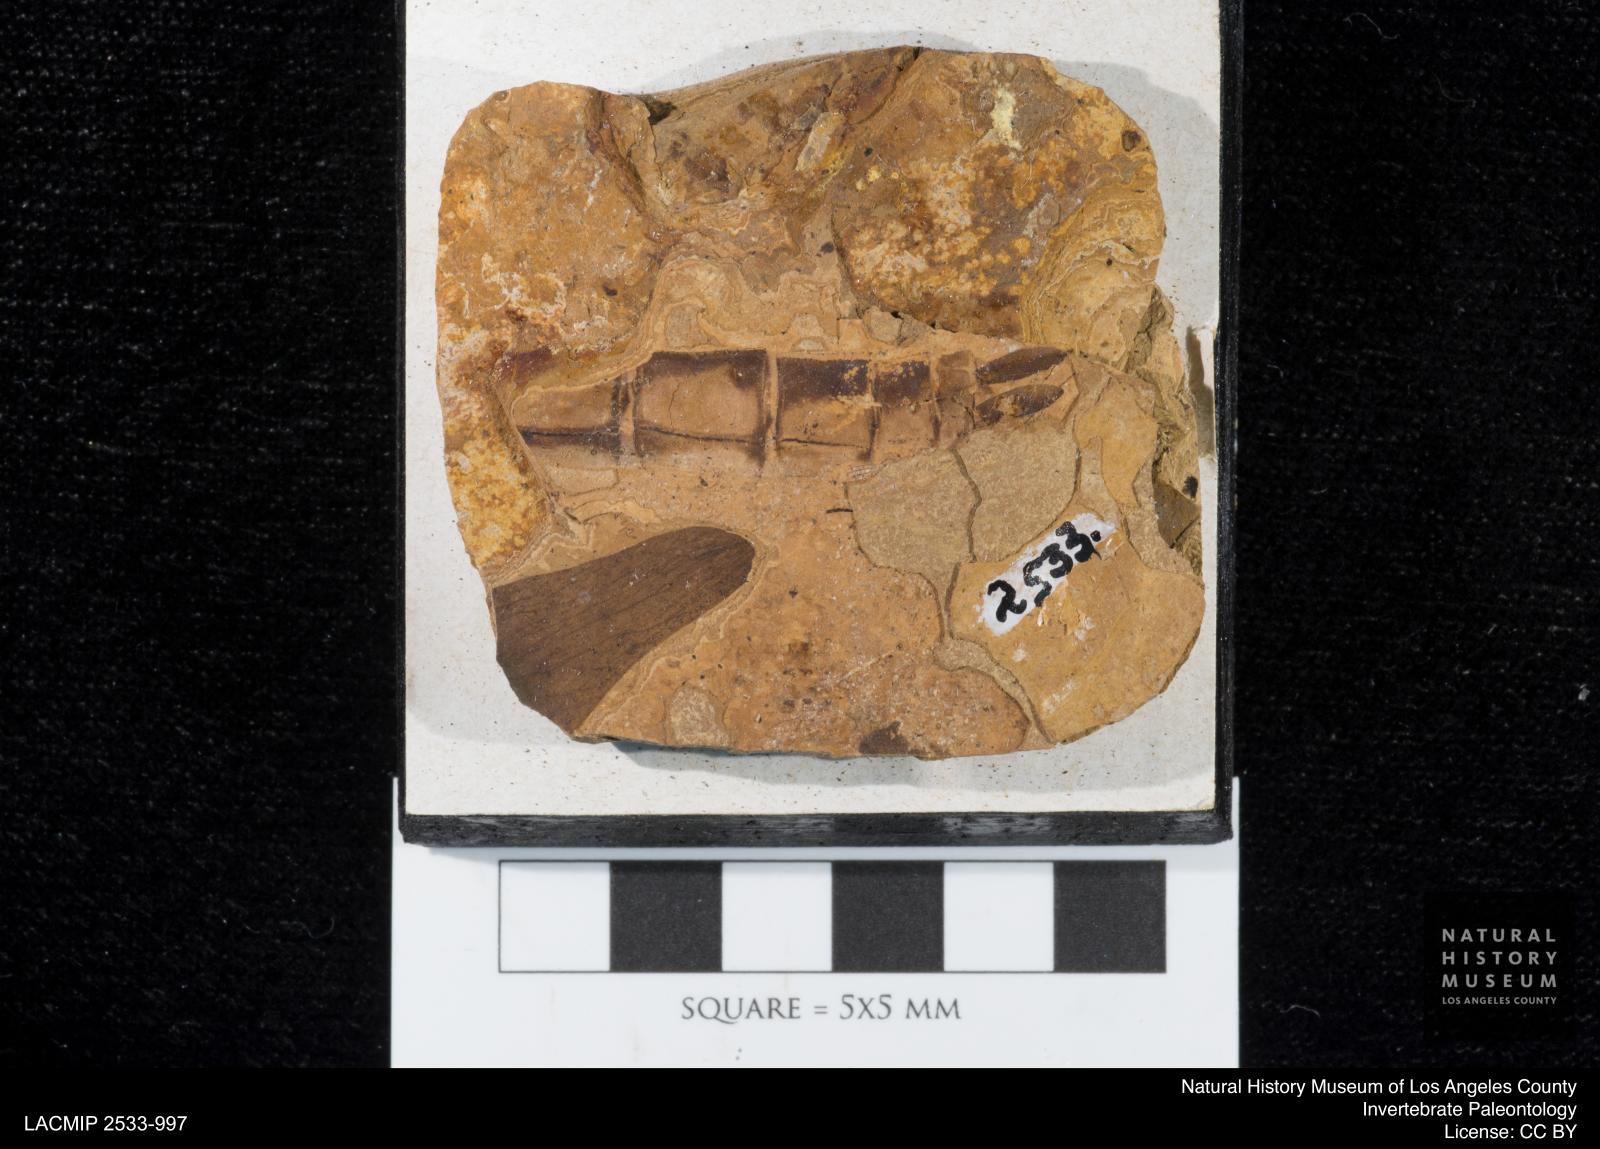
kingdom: Animalia
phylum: Arthropoda
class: Insecta
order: Odonata
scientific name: Odonata
